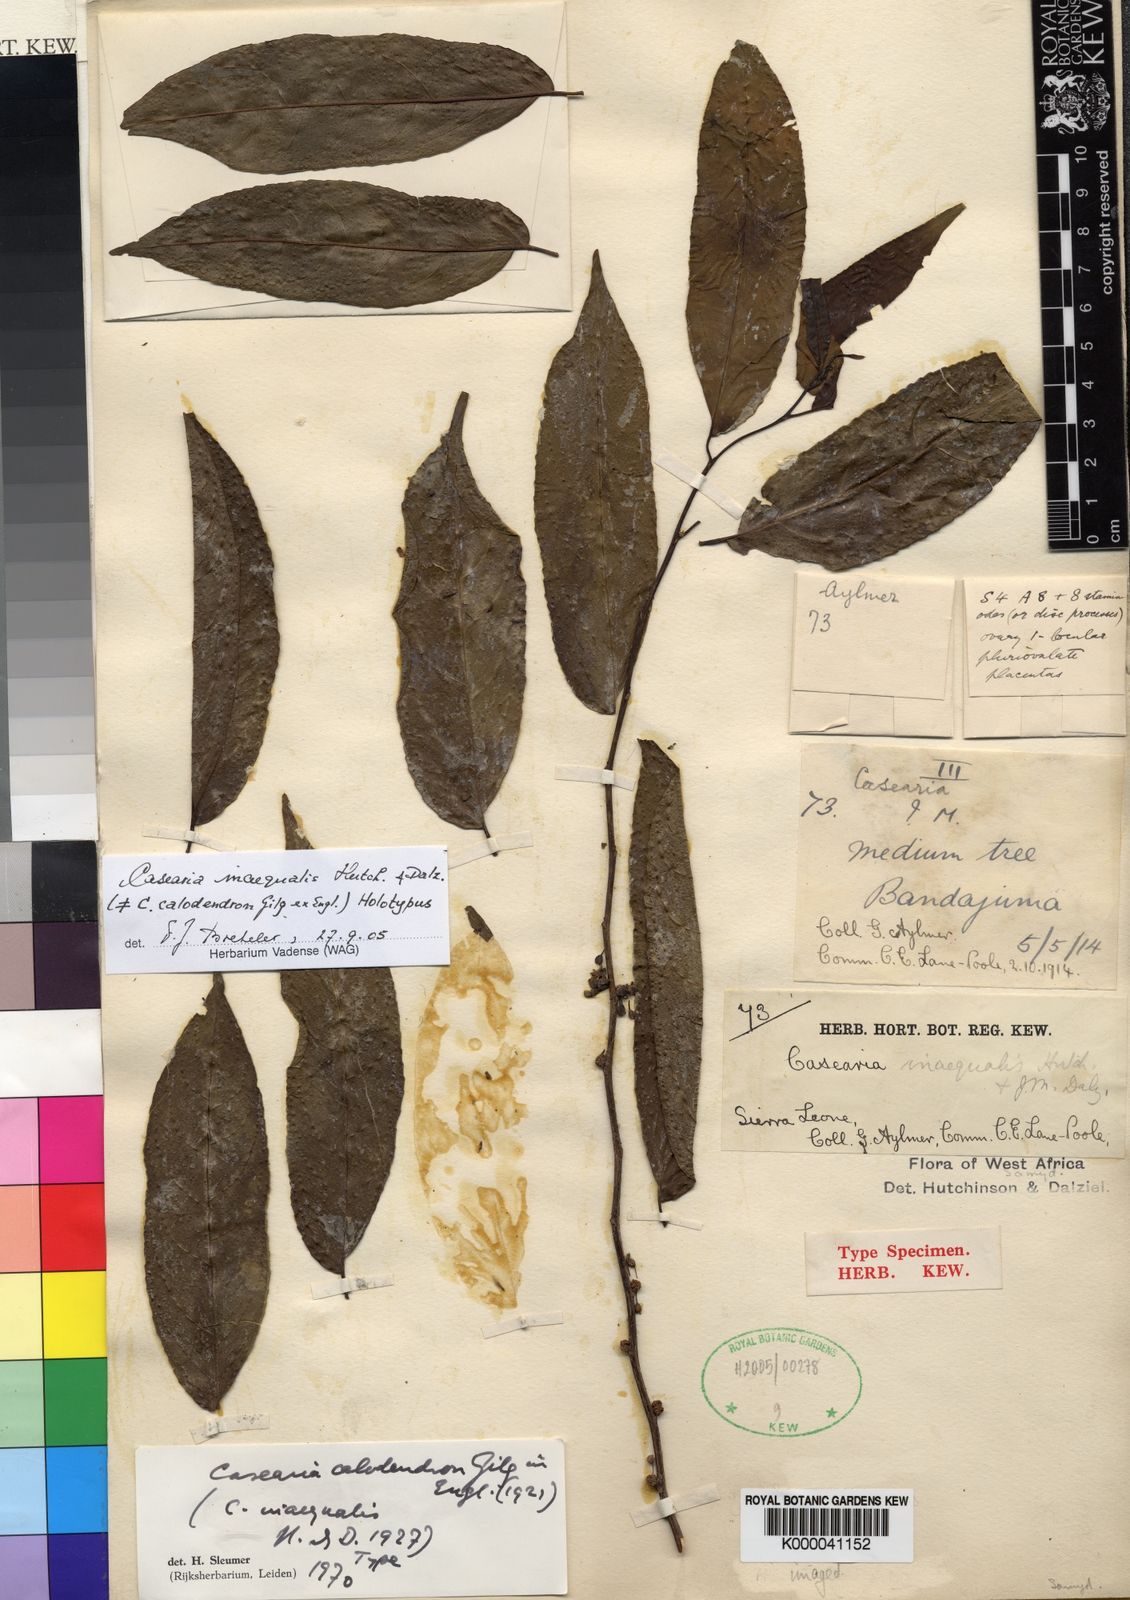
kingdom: Plantae
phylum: Tracheophyta
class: Magnoliopsida
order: Malpighiales
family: Salicaceae
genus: Casearia
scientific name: Casearia barteri
